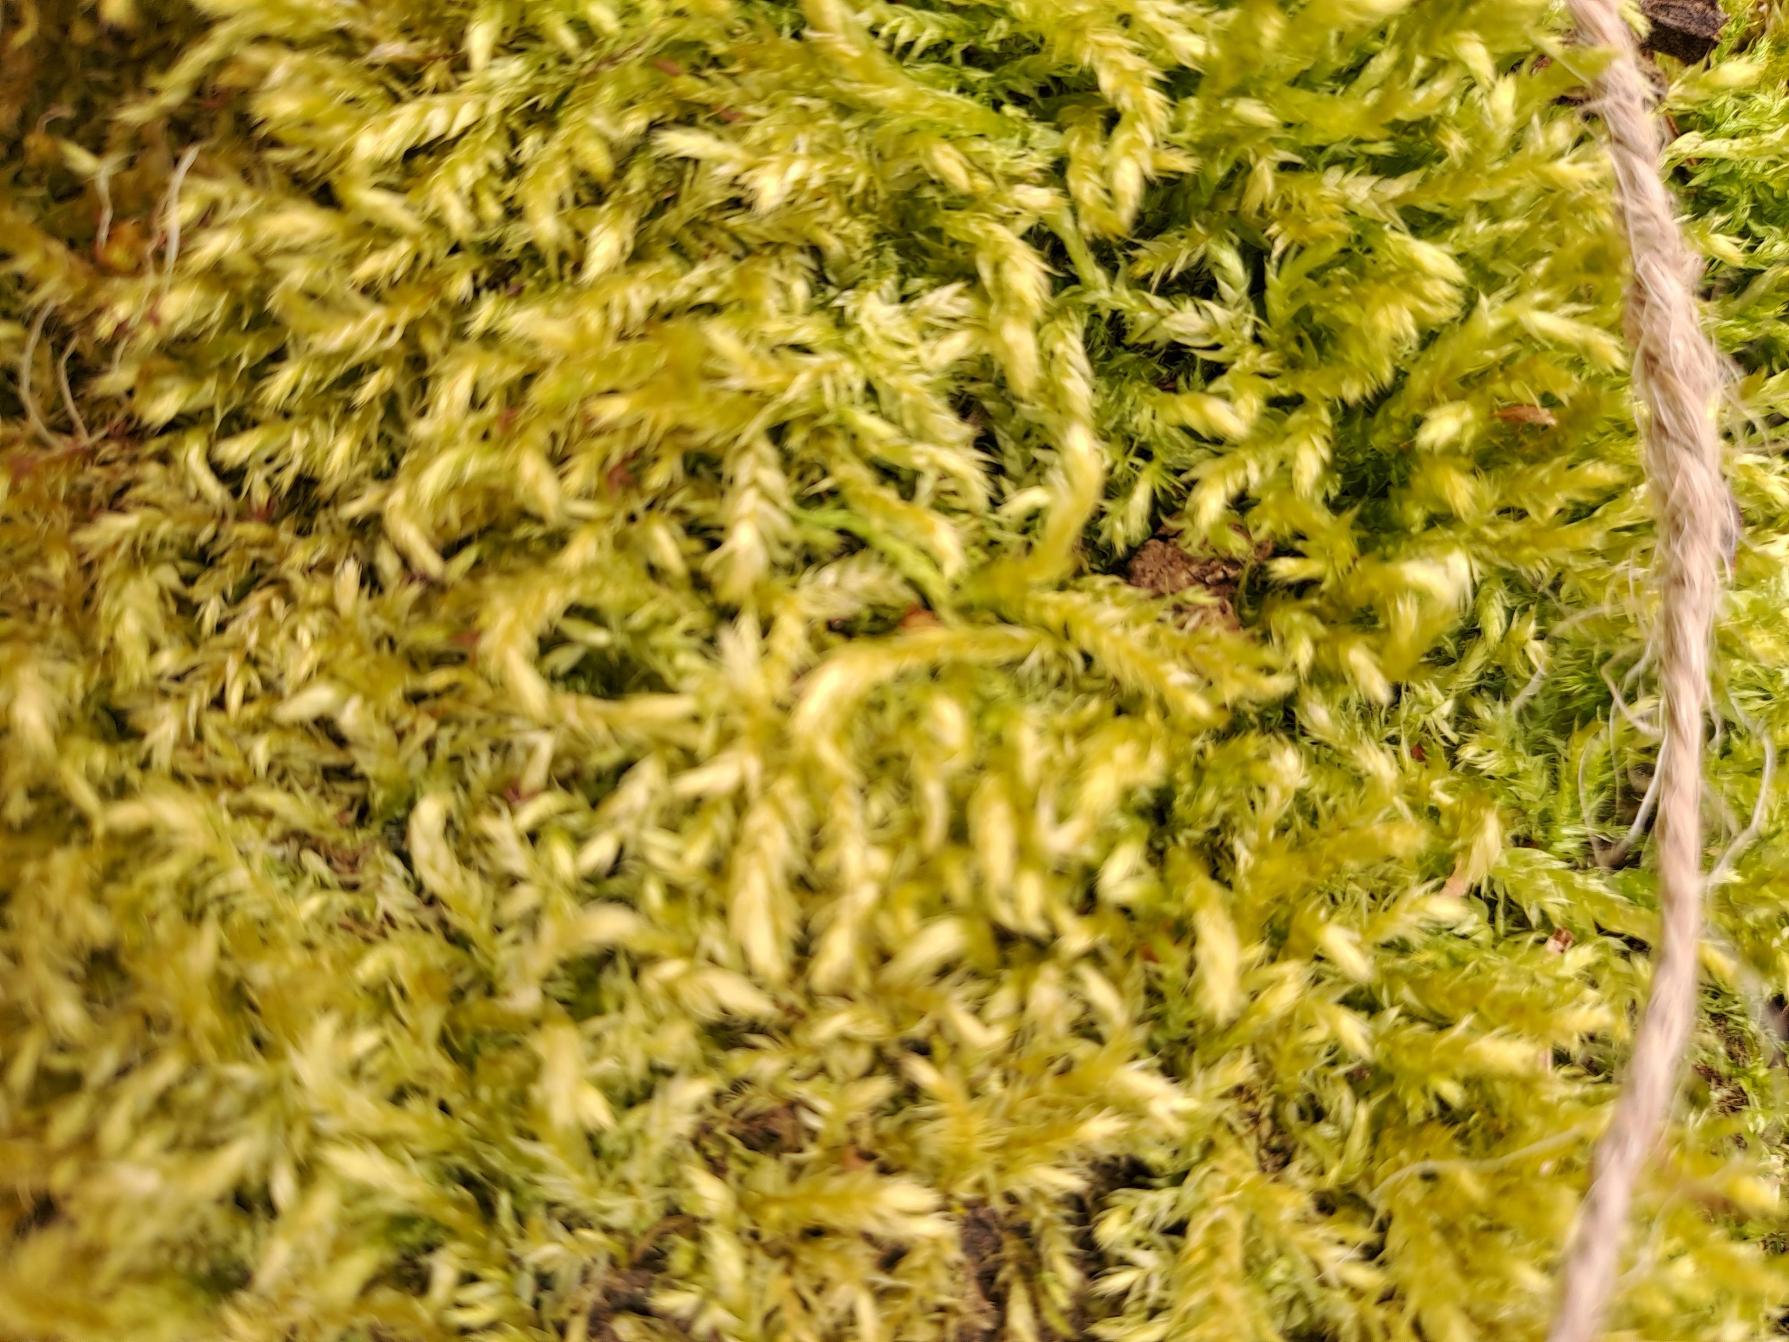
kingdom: Plantae
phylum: Bryophyta
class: Bryopsida
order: Hypnales
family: Brachytheciaceae
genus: Brachythecium
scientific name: Brachythecium rutabulum
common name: Almindelig kortkapsel
